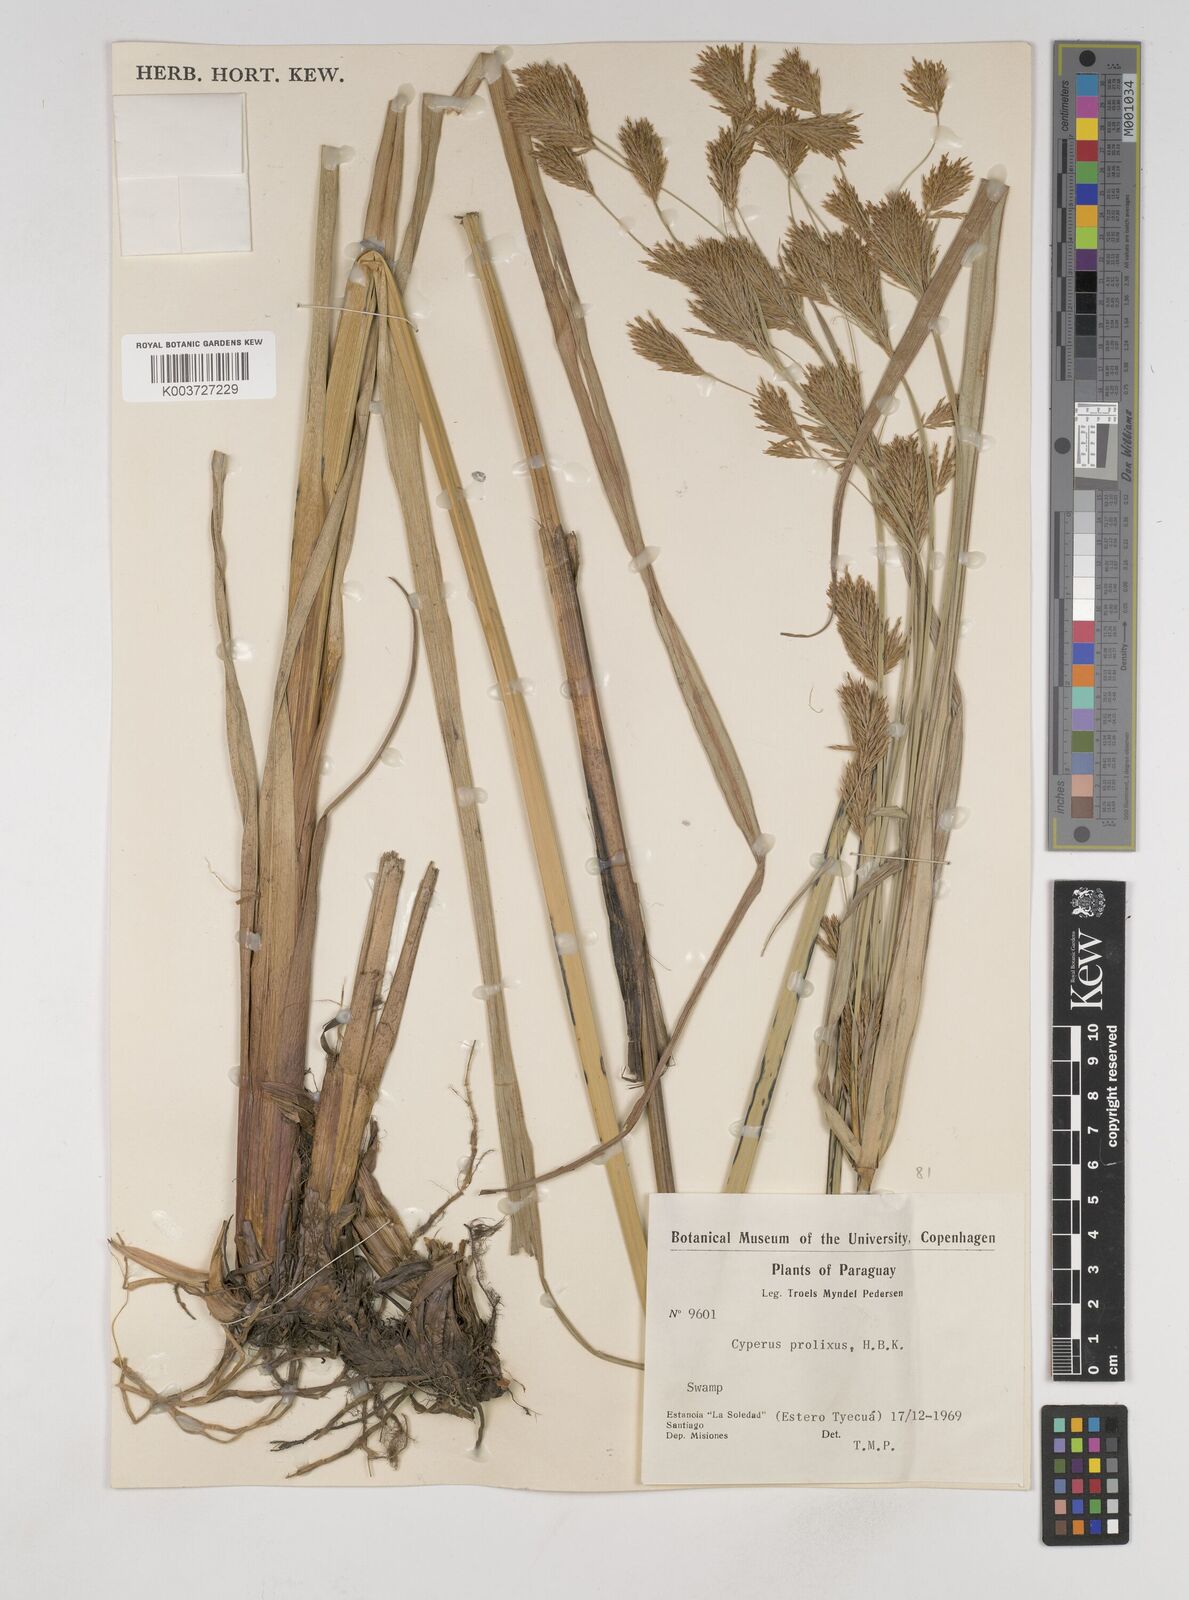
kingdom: Plantae
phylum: Tracheophyta
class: Liliopsida
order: Poales
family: Cyperaceae
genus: Cyperus
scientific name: Cyperus prolixus
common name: Mosquito flatsedge
